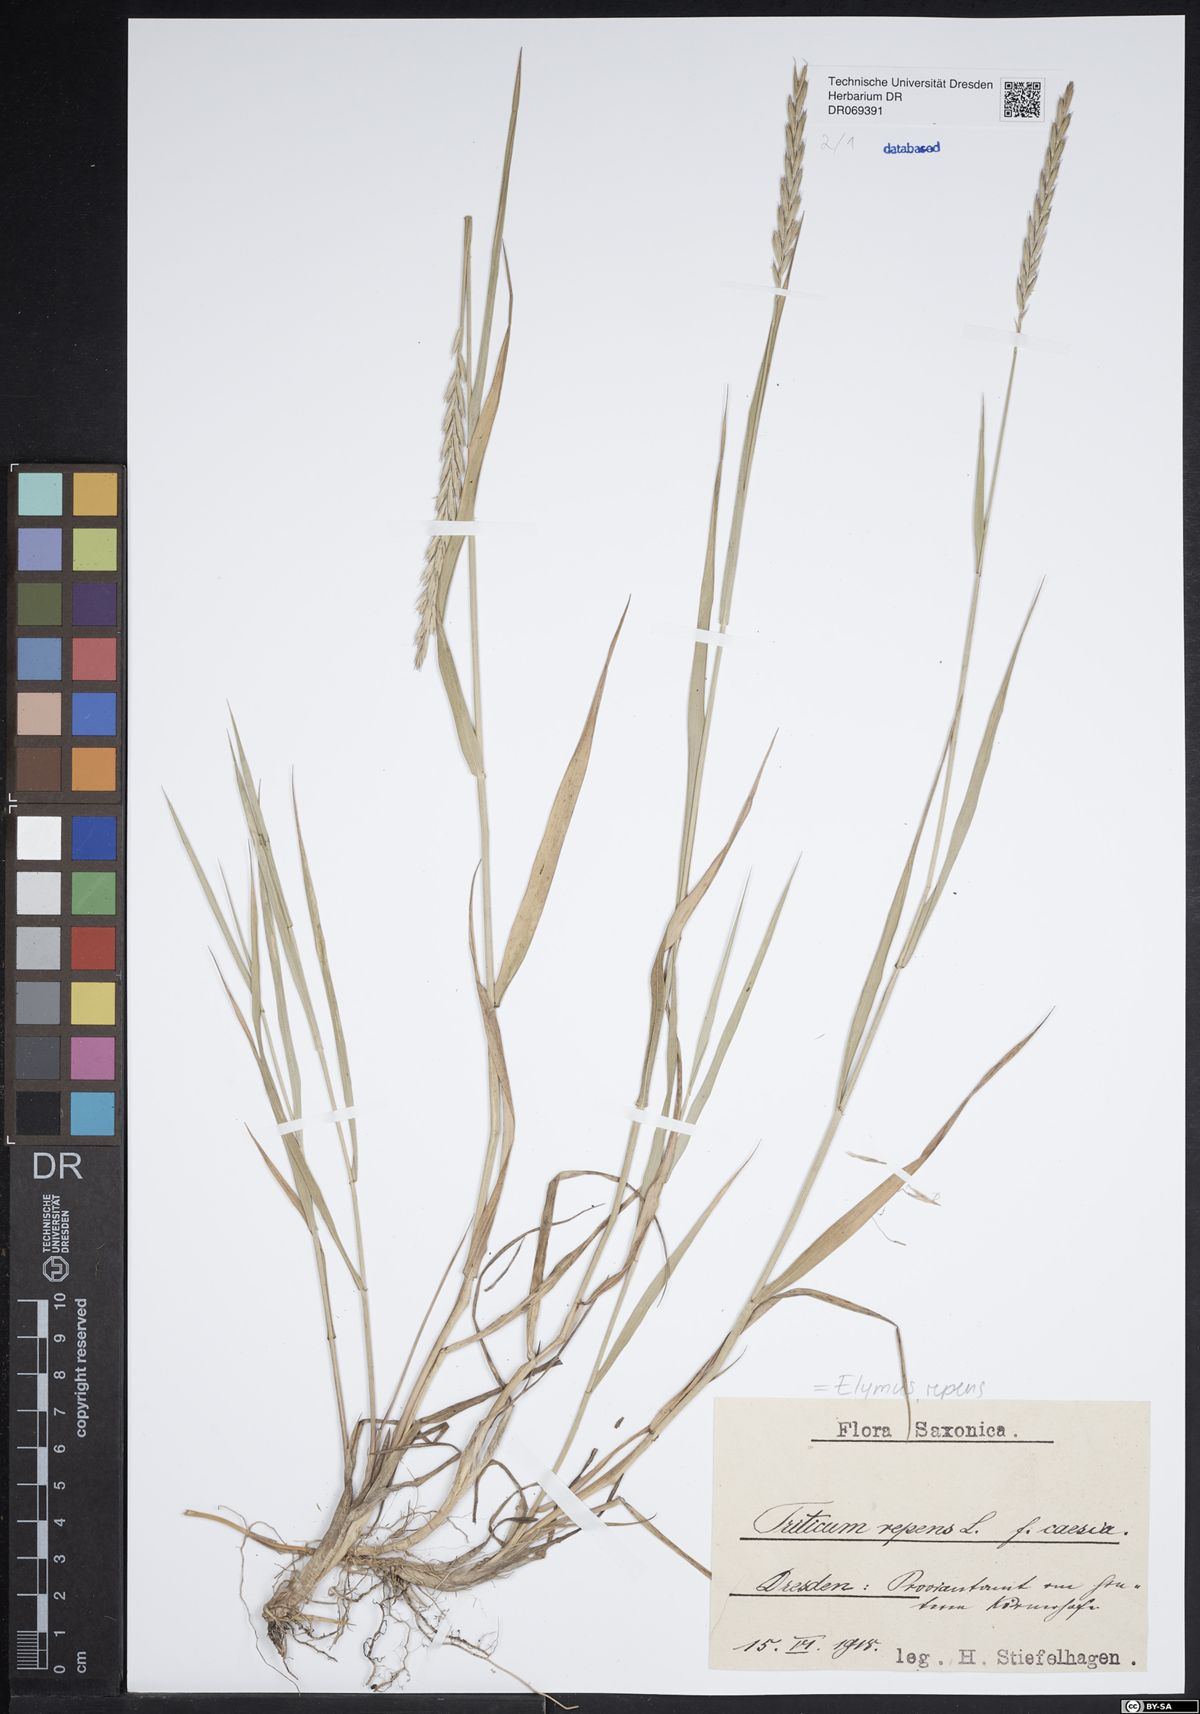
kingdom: Plantae
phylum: Tracheophyta
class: Liliopsida
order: Poales
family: Poaceae
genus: Elymus
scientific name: Elymus repens
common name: Quackgrass
